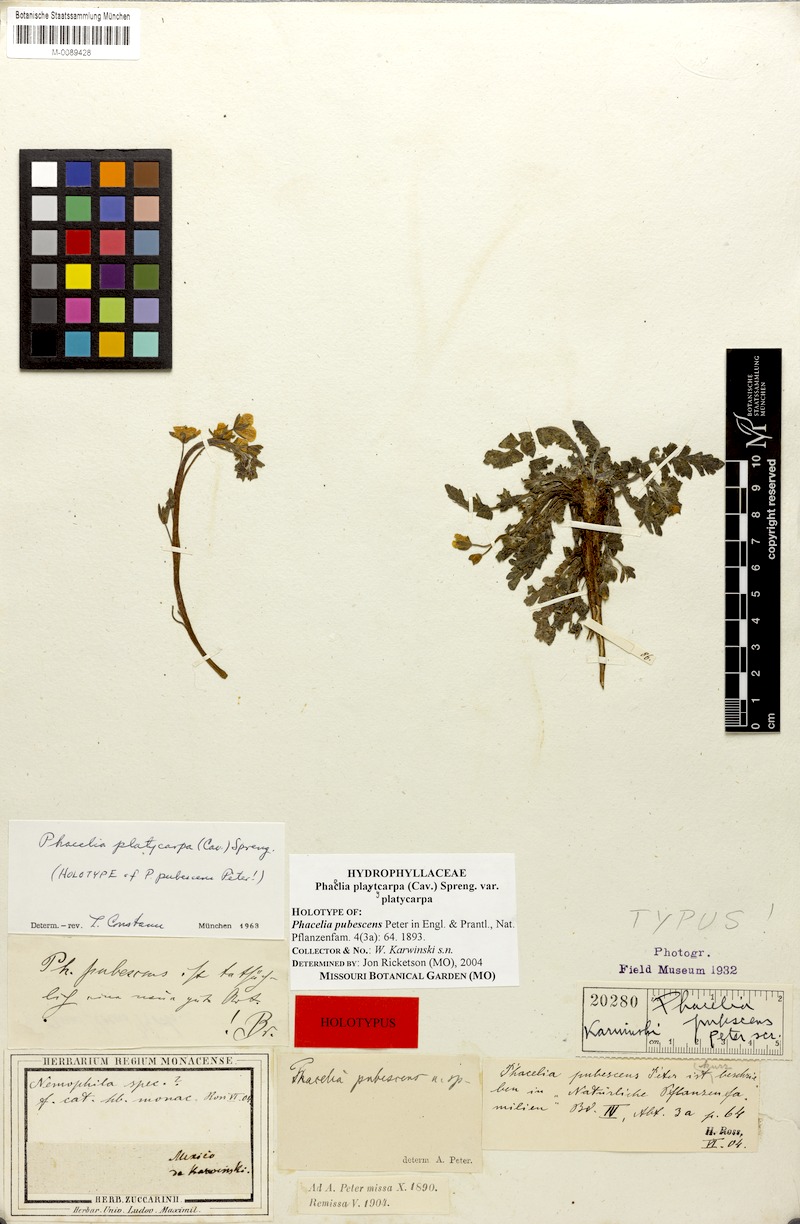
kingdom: Plantae
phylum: Tracheophyta
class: Magnoliopsida
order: Boraginales
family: Hydrophyllaceae
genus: Phacelia
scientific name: Phacelia platycarpa
